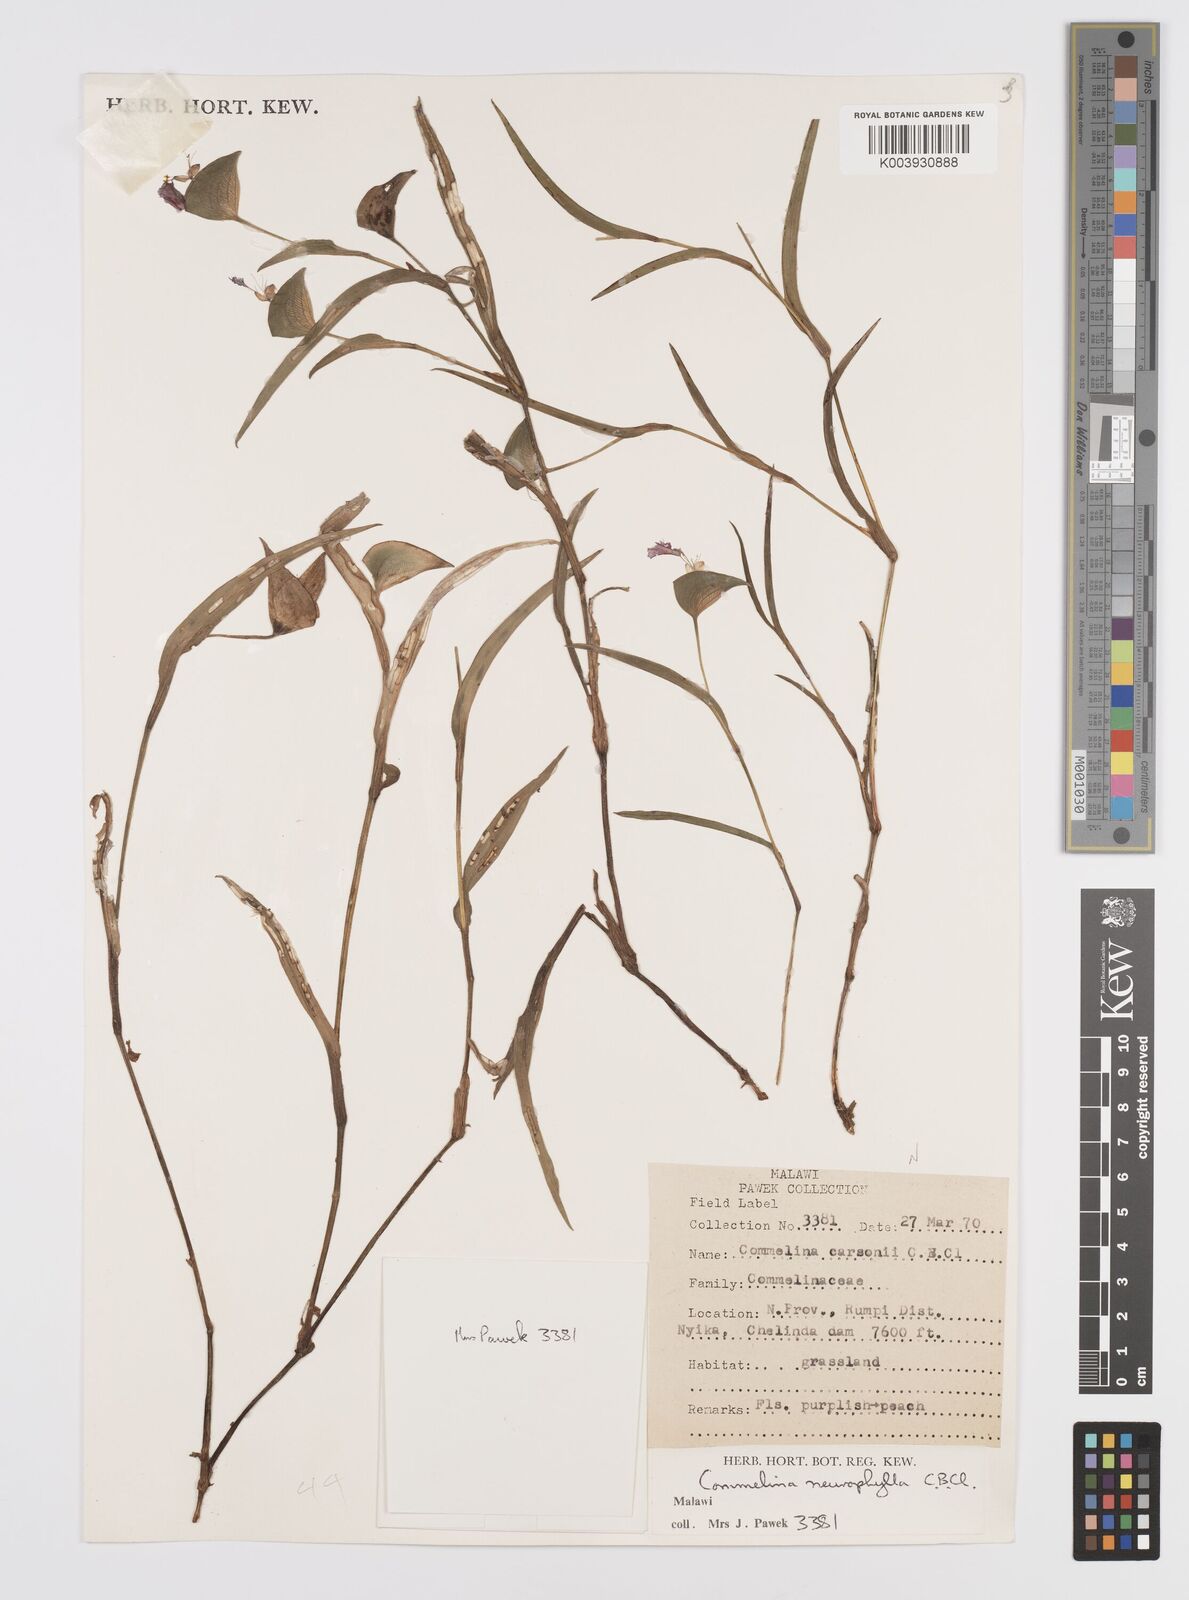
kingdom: Plantae
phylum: Tracheophyta
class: Liliopsida
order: Commelinales
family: Commelinaceae
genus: Commelina
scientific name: Commelina neurophylla
